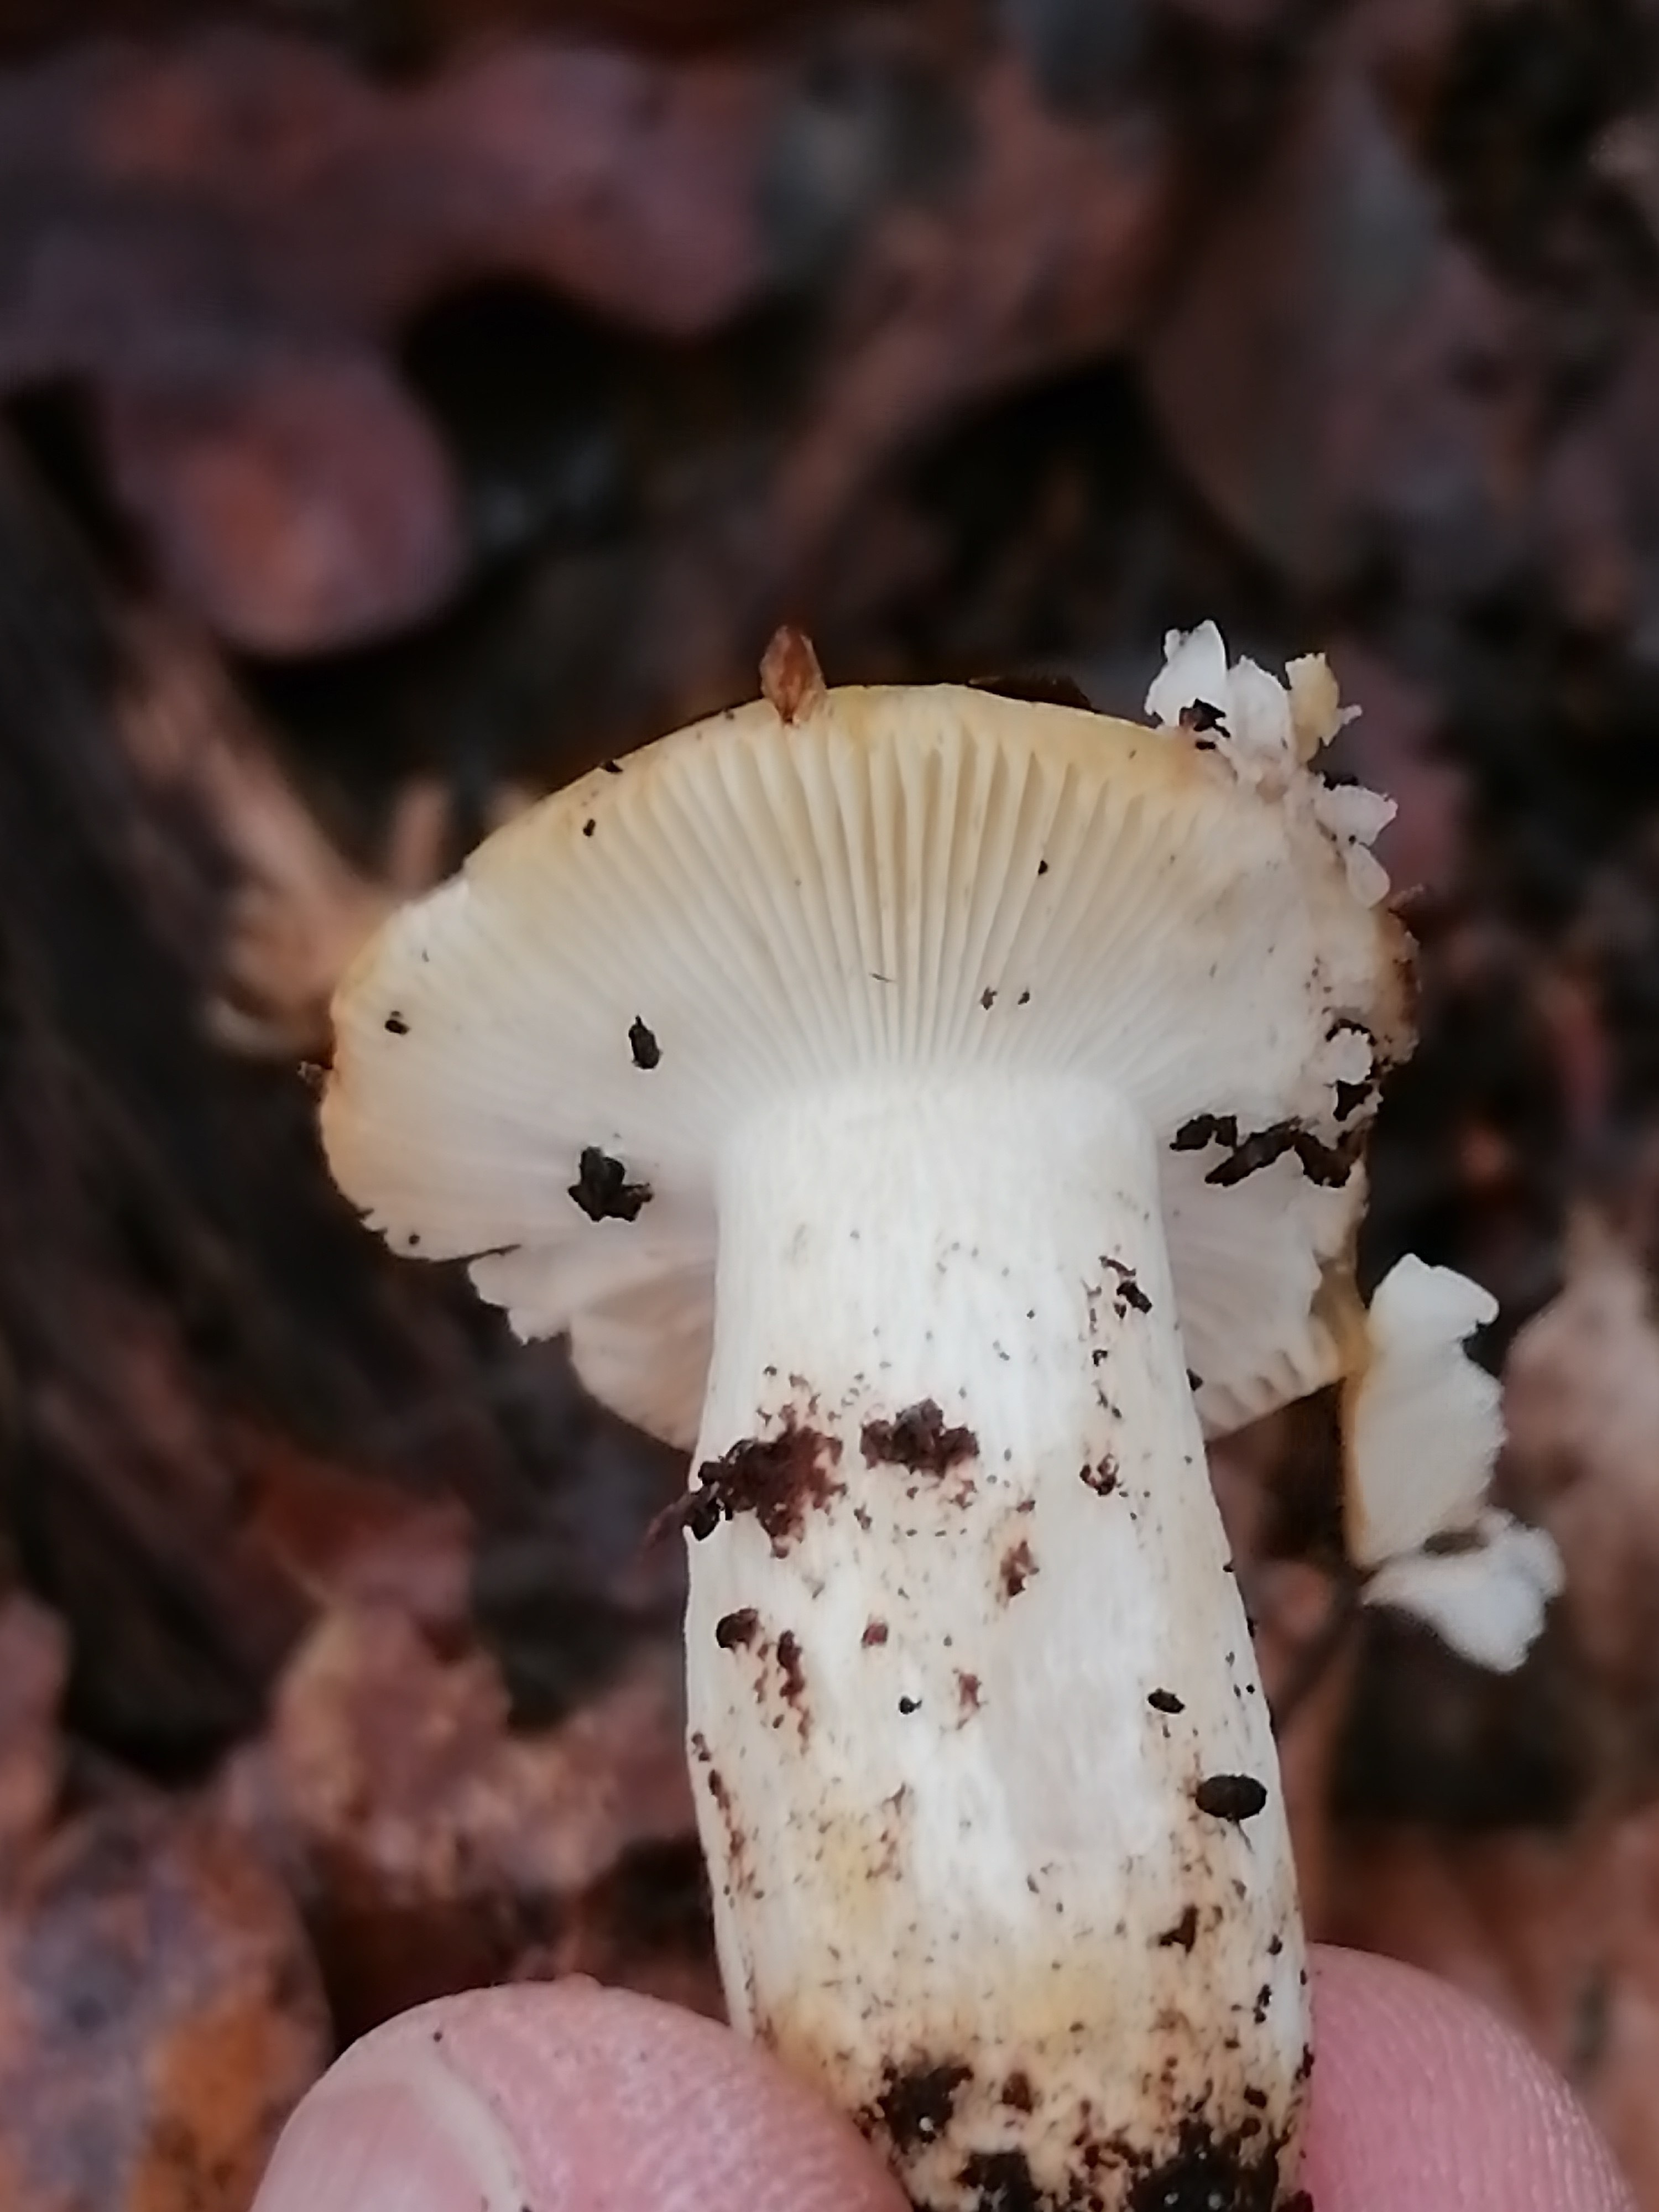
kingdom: Fungi
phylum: Basidiomycota
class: Agaricomycetes
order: Russulales
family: Russulaceae
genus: Russula
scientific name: Russula ochroleuca
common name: okkergul skørhat
